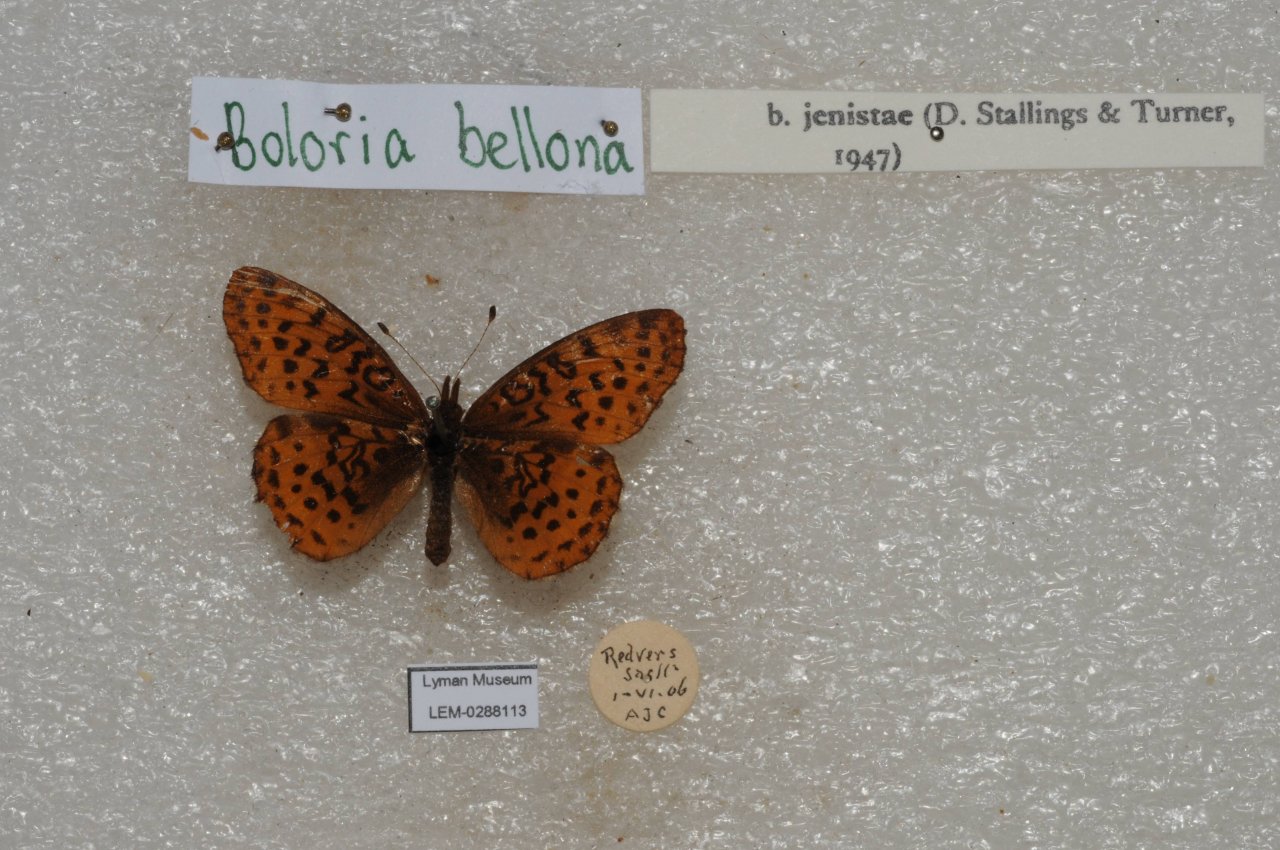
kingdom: Animalia
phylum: Arthropoda
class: Insecta
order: Lepidoptera
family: Nymphalidae
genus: Clossiana
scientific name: Clossiana toddi
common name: Meadow Fritillary
